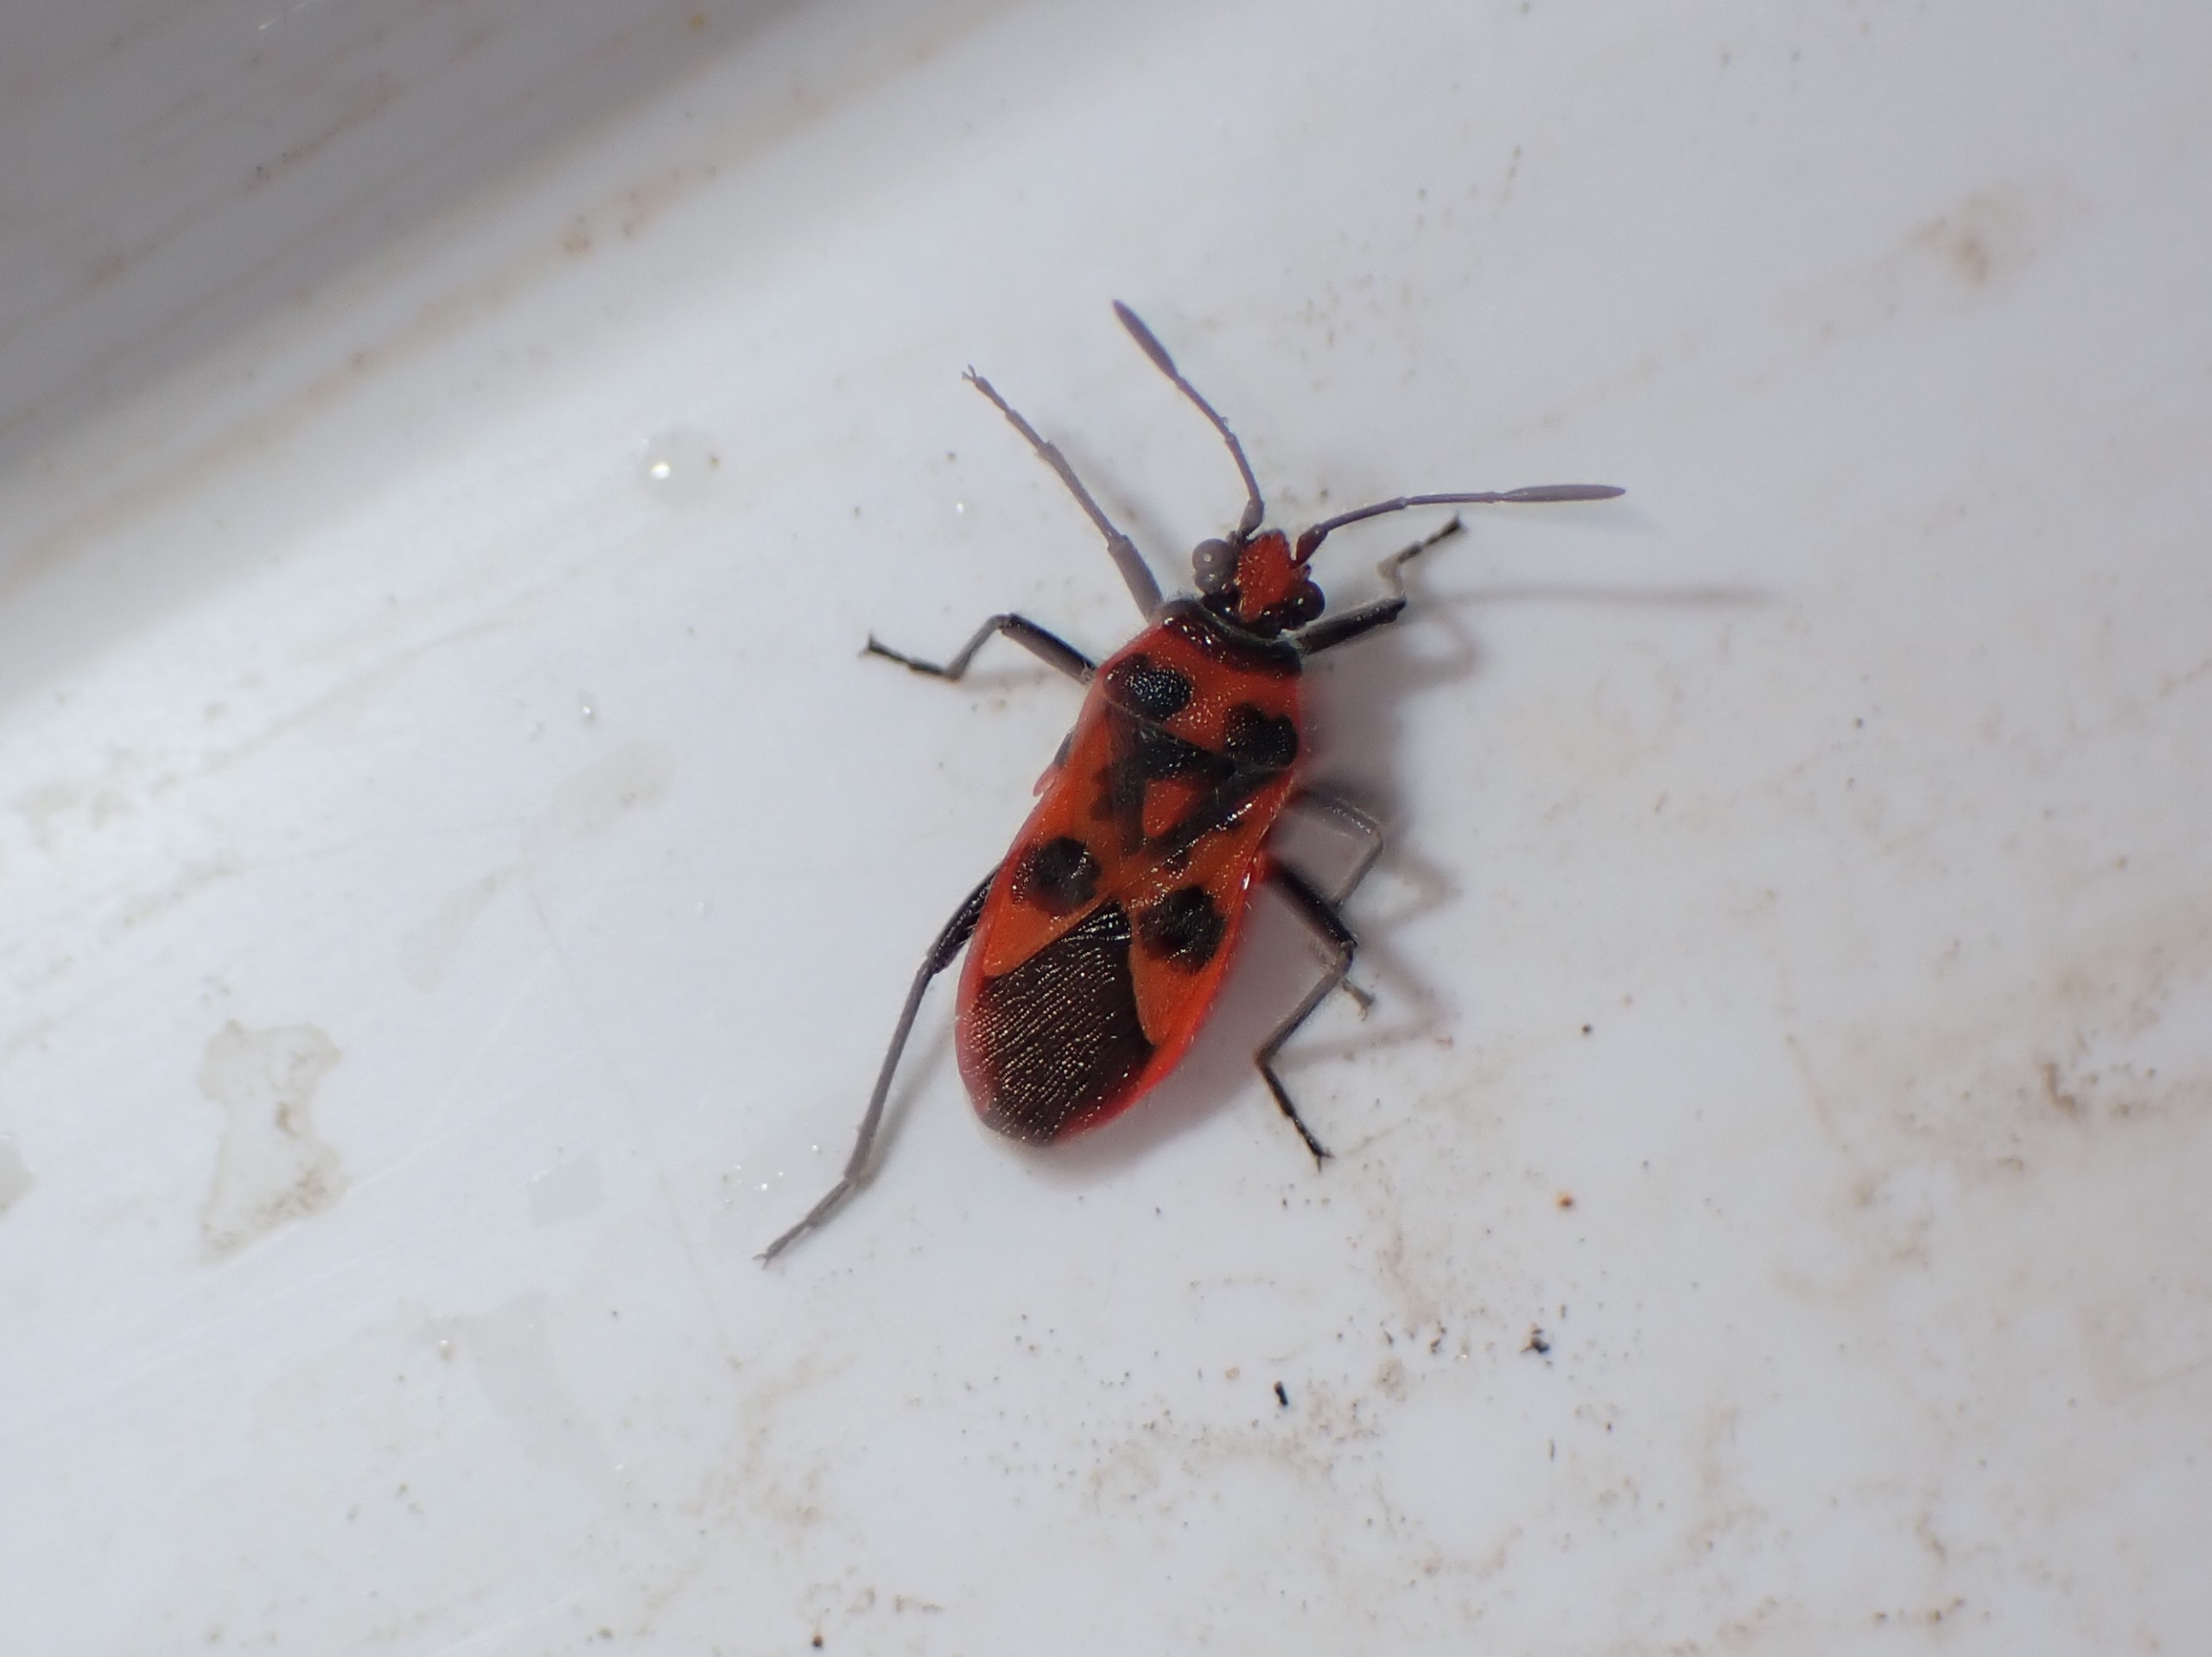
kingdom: Animalia
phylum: Arthropoda
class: Insecta
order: Hemiptera
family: Rhopalidae
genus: Corizus
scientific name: Corizus hyoscyami
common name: Rød kanttæge
